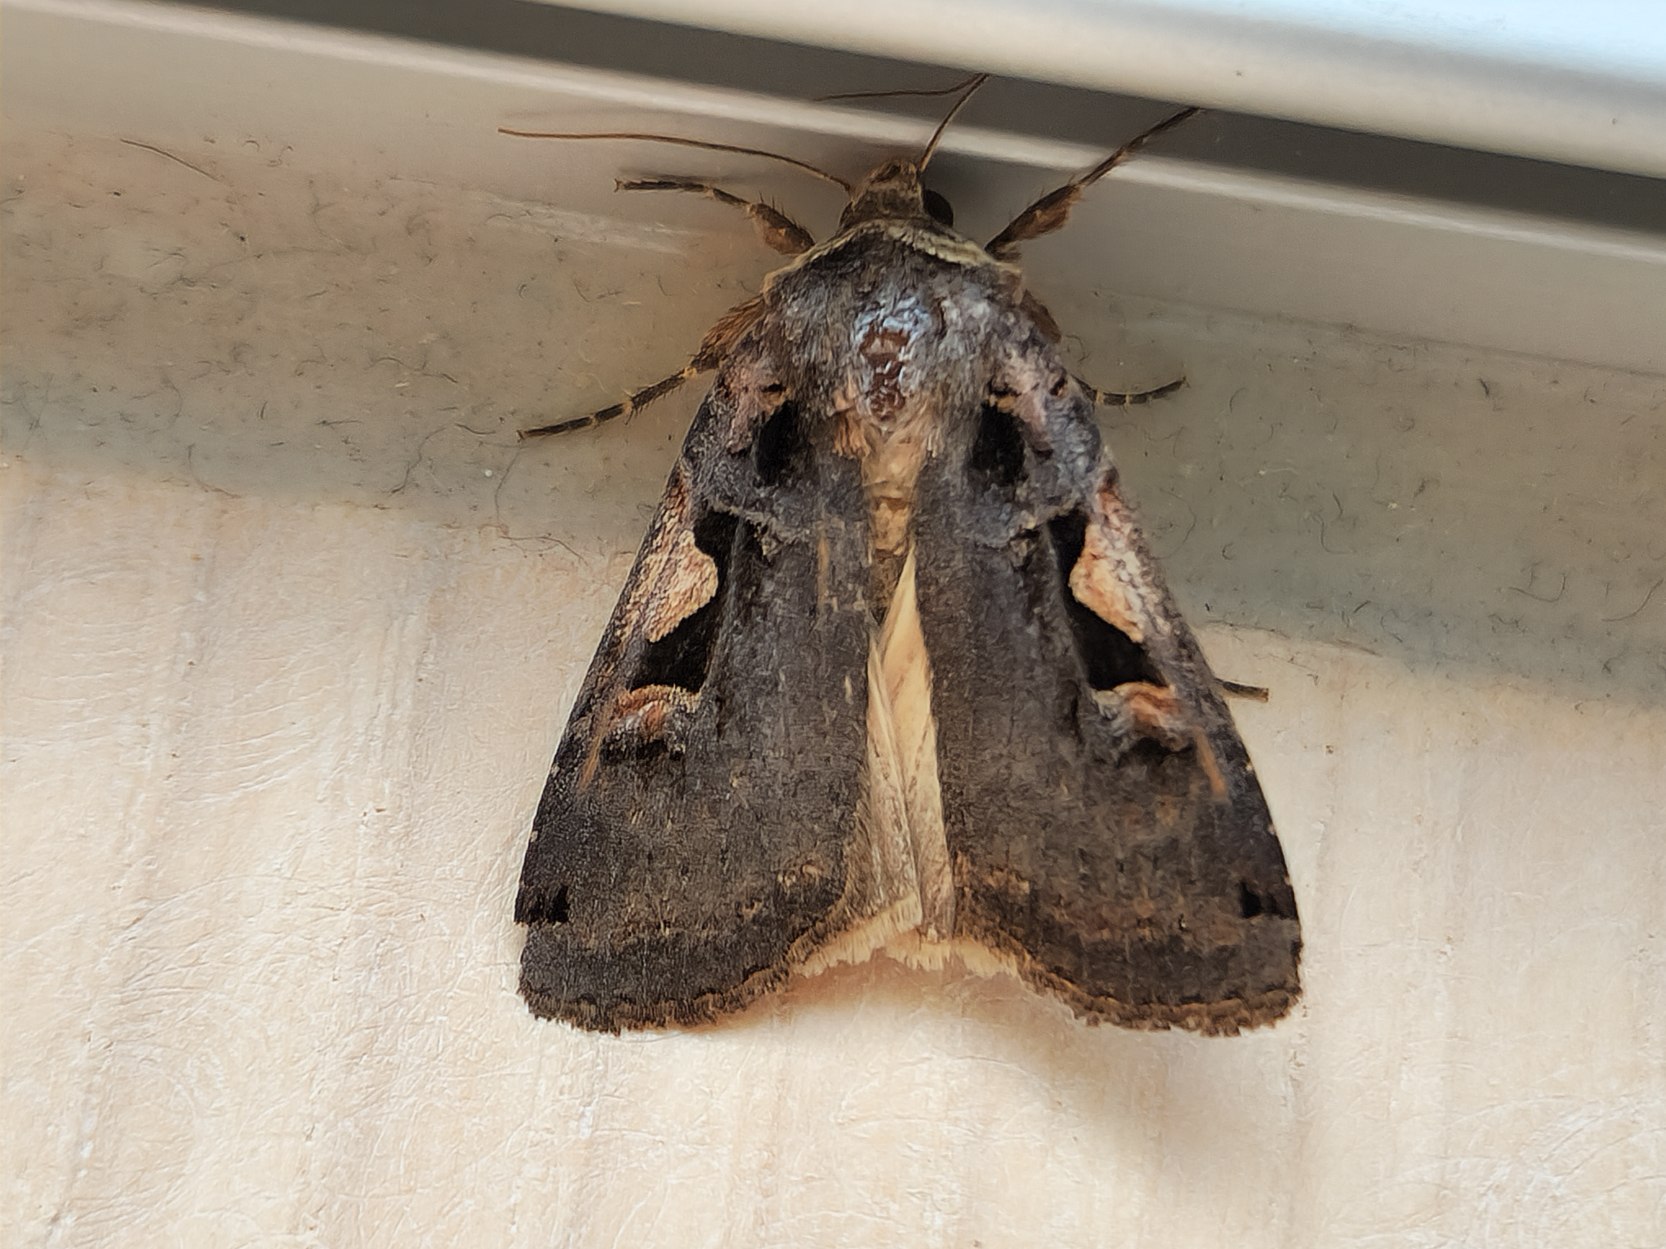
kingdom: Animalia
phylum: Arthropoda
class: Insecta
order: Lepidoptera
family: Noctuidae
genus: Xestia
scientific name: Xestia c-nigrum
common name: Det sorte c
